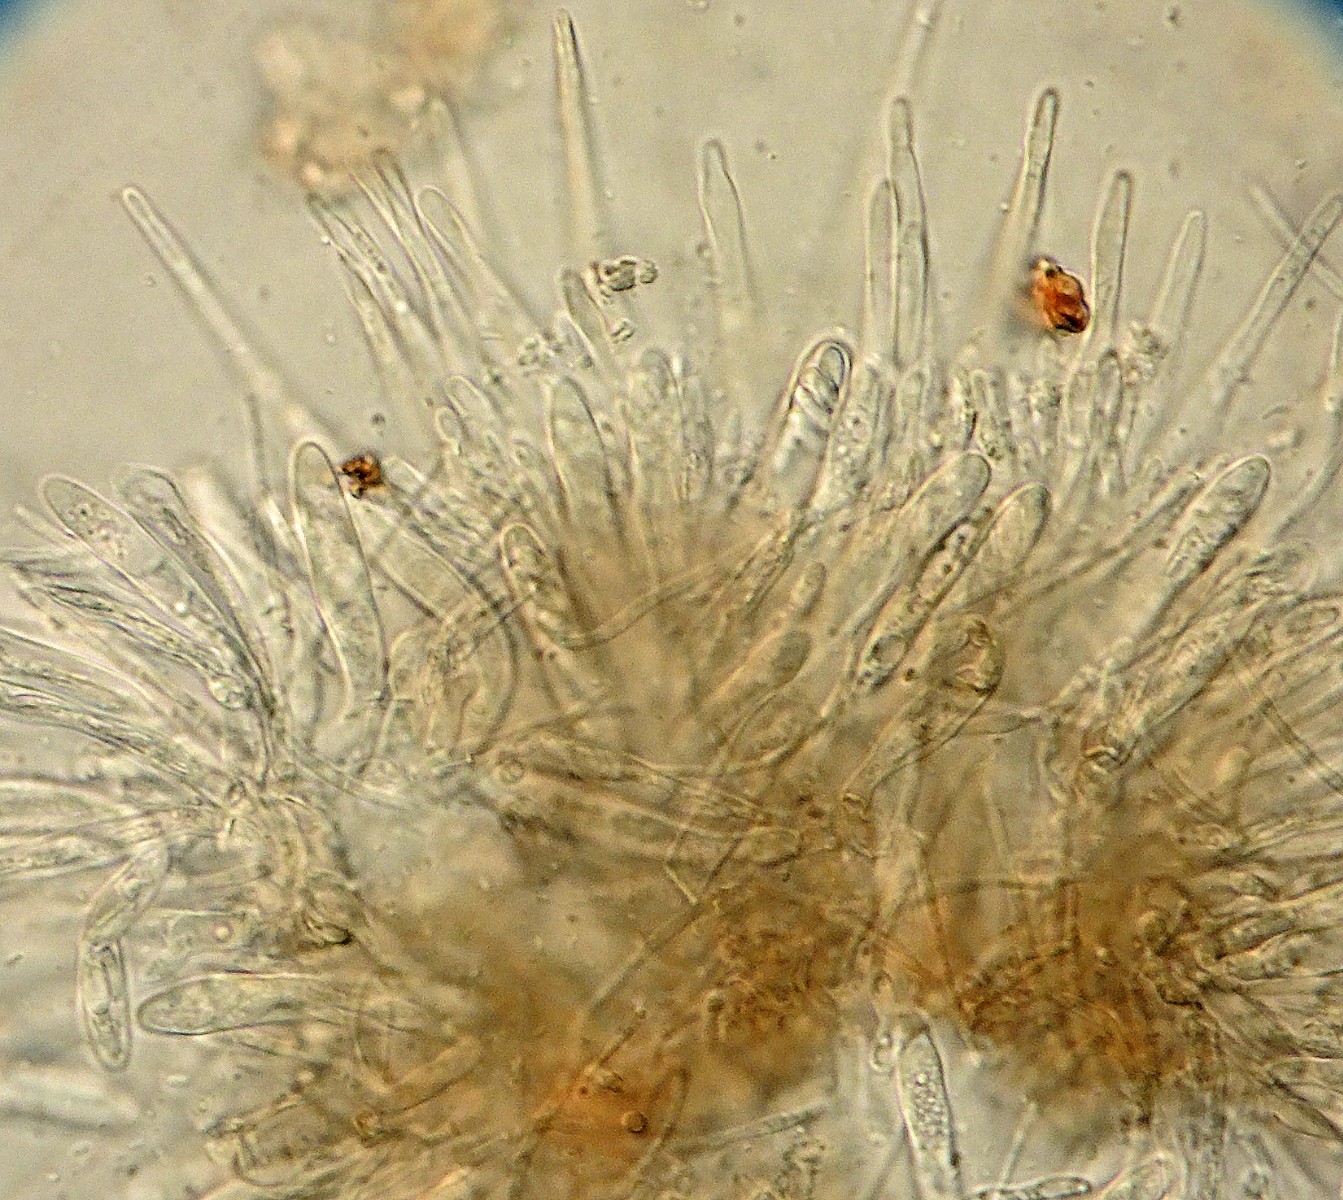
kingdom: Fungi
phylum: Ascomycota
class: Leotiomycetes
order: Helotiales
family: Hyaloscyphaceae
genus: Dematioscypha
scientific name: Dematioscypha olivacea
